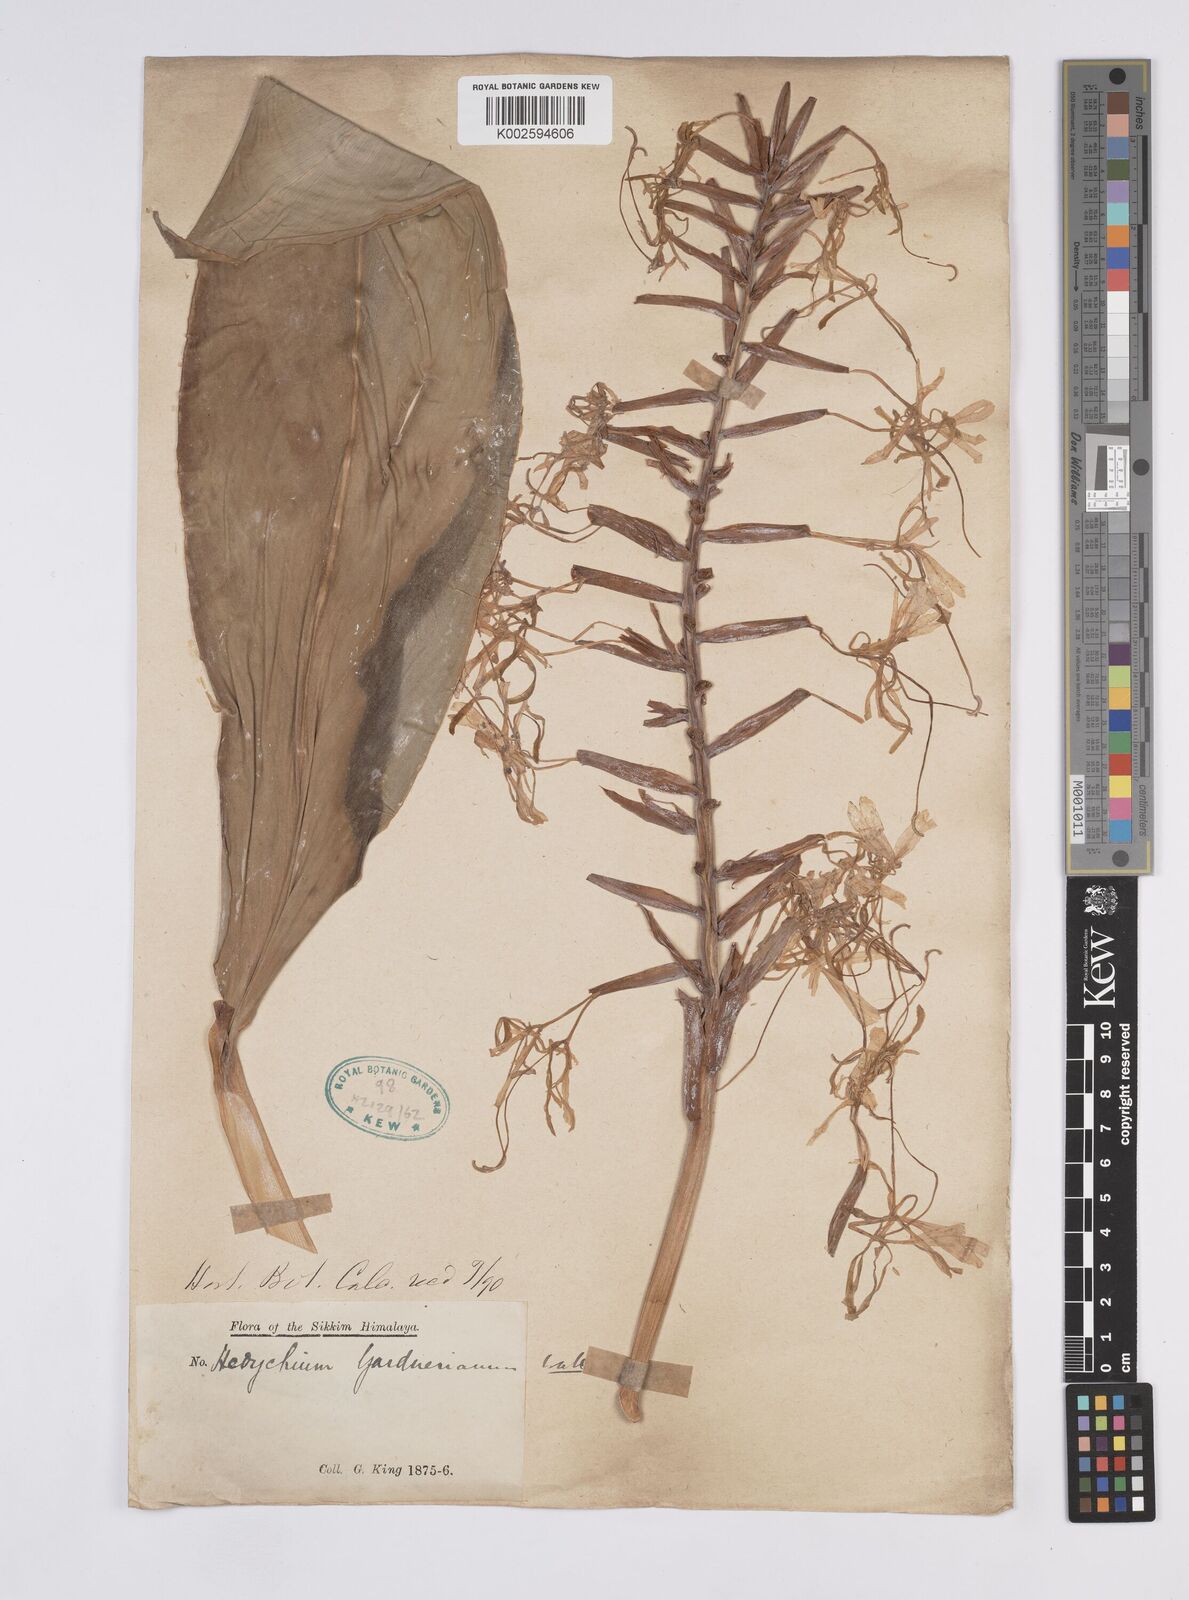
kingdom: Plantae
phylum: Tracheophyta
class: Liliopsida
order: Zingiberales
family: Zingiberaceae
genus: Hedychium
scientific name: Hedychium gardnerianum
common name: Himalayan ginger
